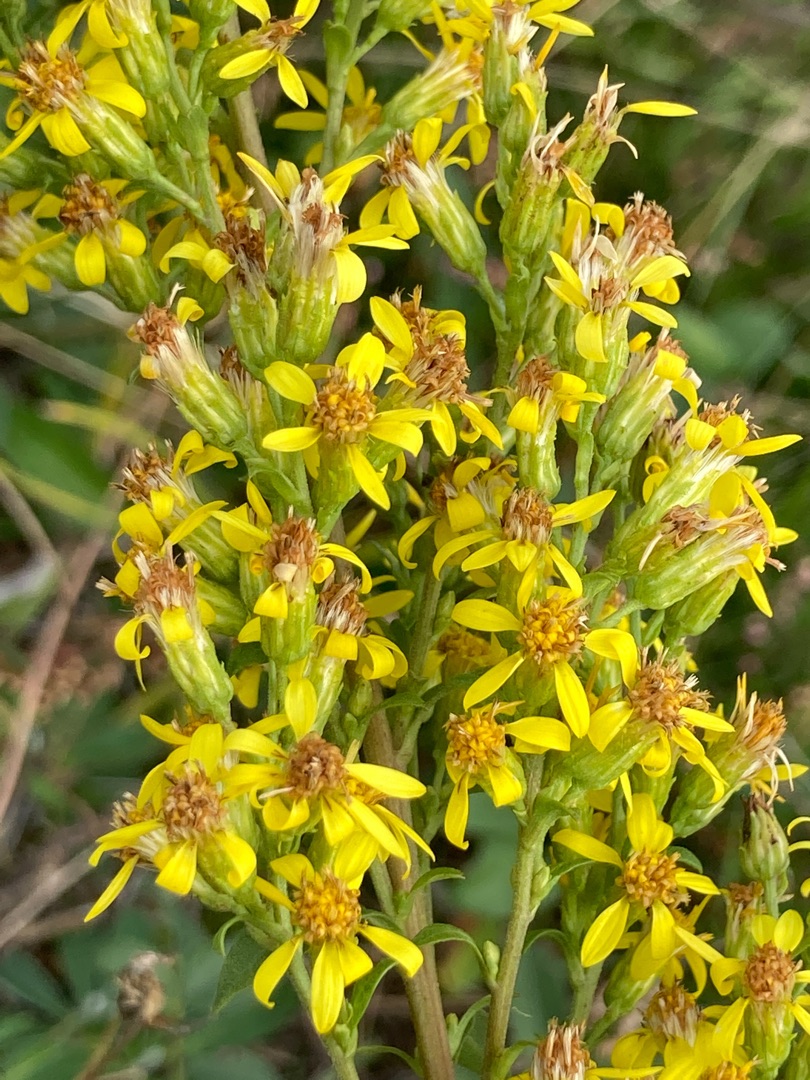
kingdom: Plantae
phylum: Tracheophyta
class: Magnoliopsida
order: Asterales
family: Asteraceae
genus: Solidago
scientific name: Solidago virgaurea
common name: Almindelig gyldenris
